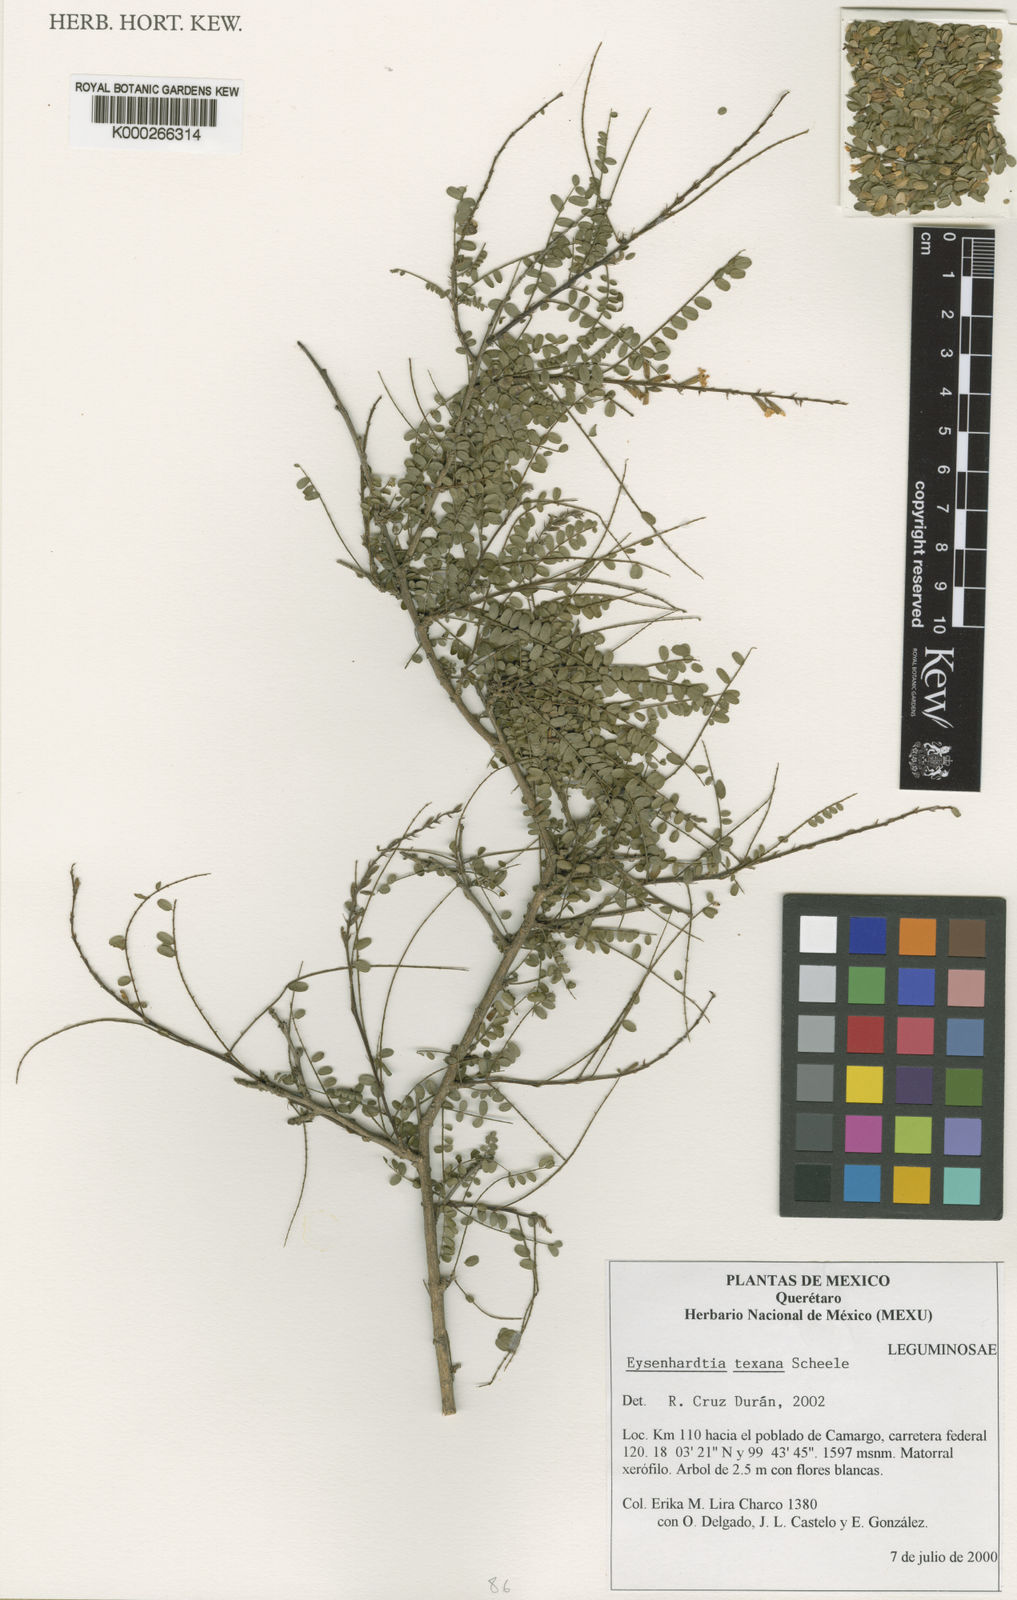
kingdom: Plantae
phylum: Tracheophyta
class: Magnoliopsida
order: Fabales
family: Fabaceae
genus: Eysenhardtia
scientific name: Eysenhardtia texana
